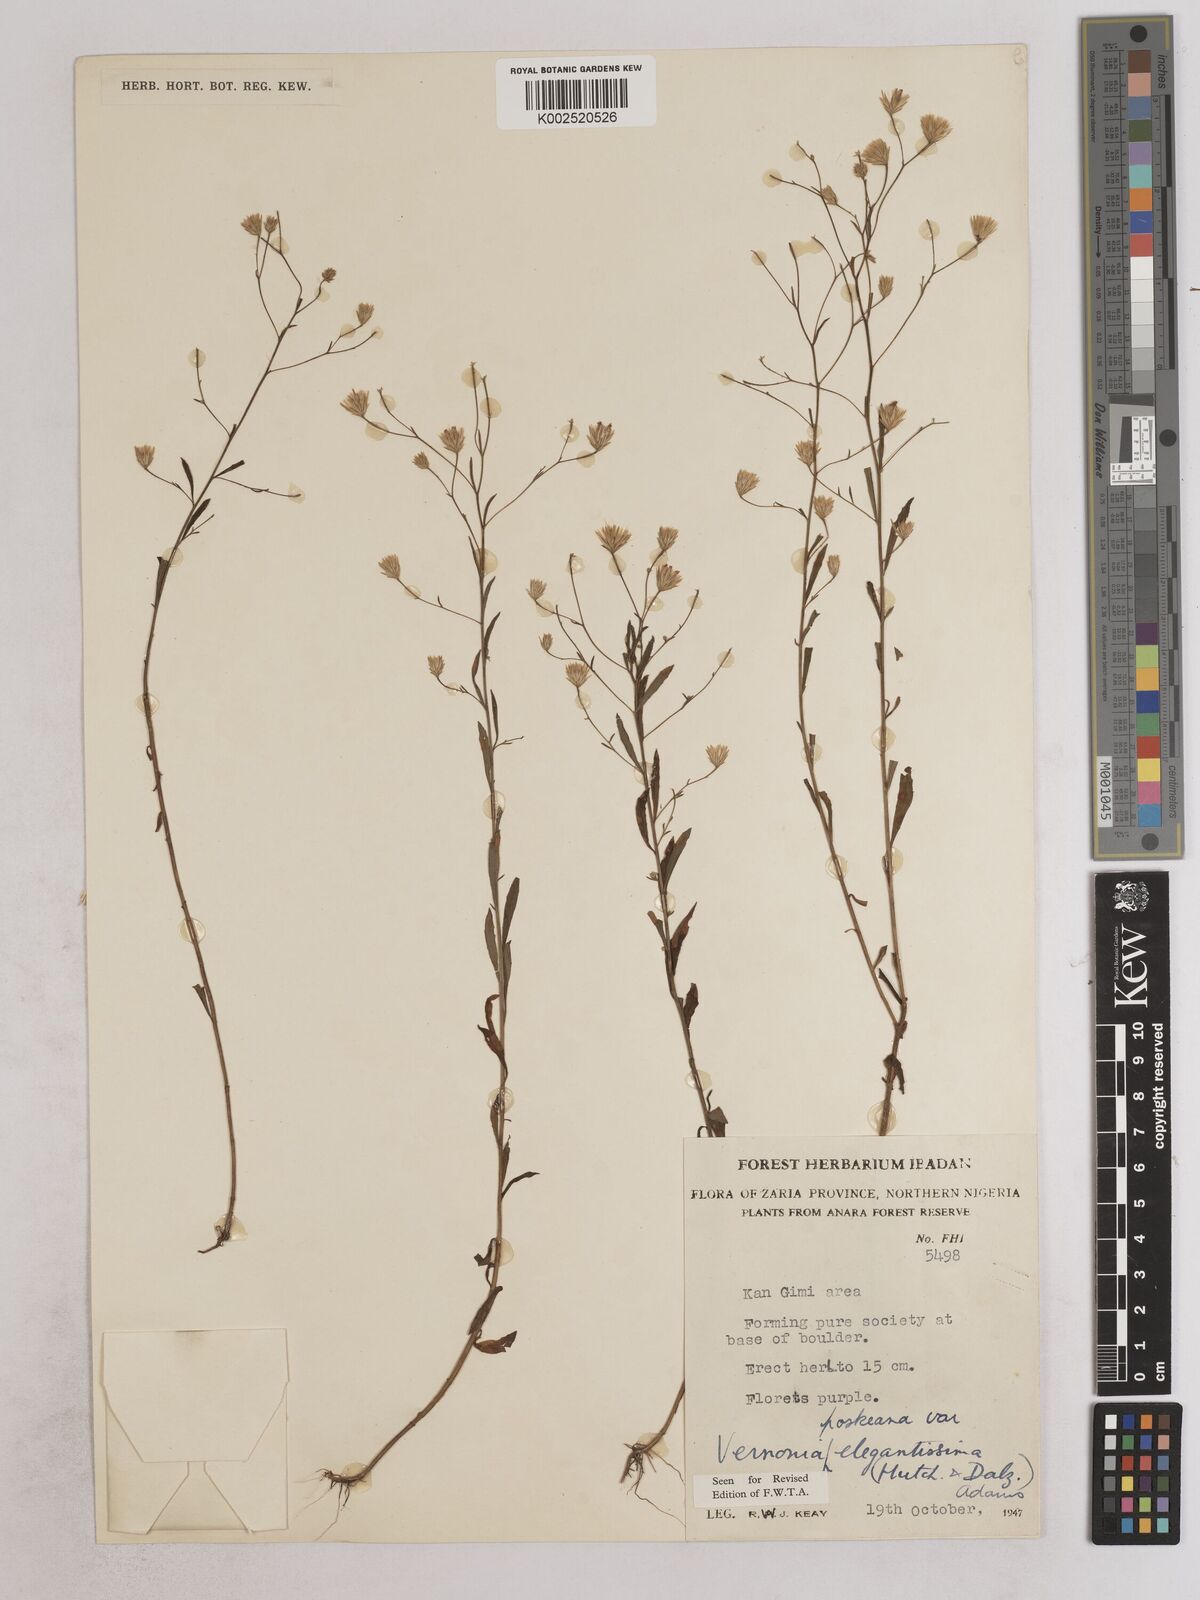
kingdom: Plantae
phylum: Tracheophyta
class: Magnoliopsida
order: Asterales
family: Asteraceae
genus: Crystallopollen
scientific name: Crystallopollen angustifolium
